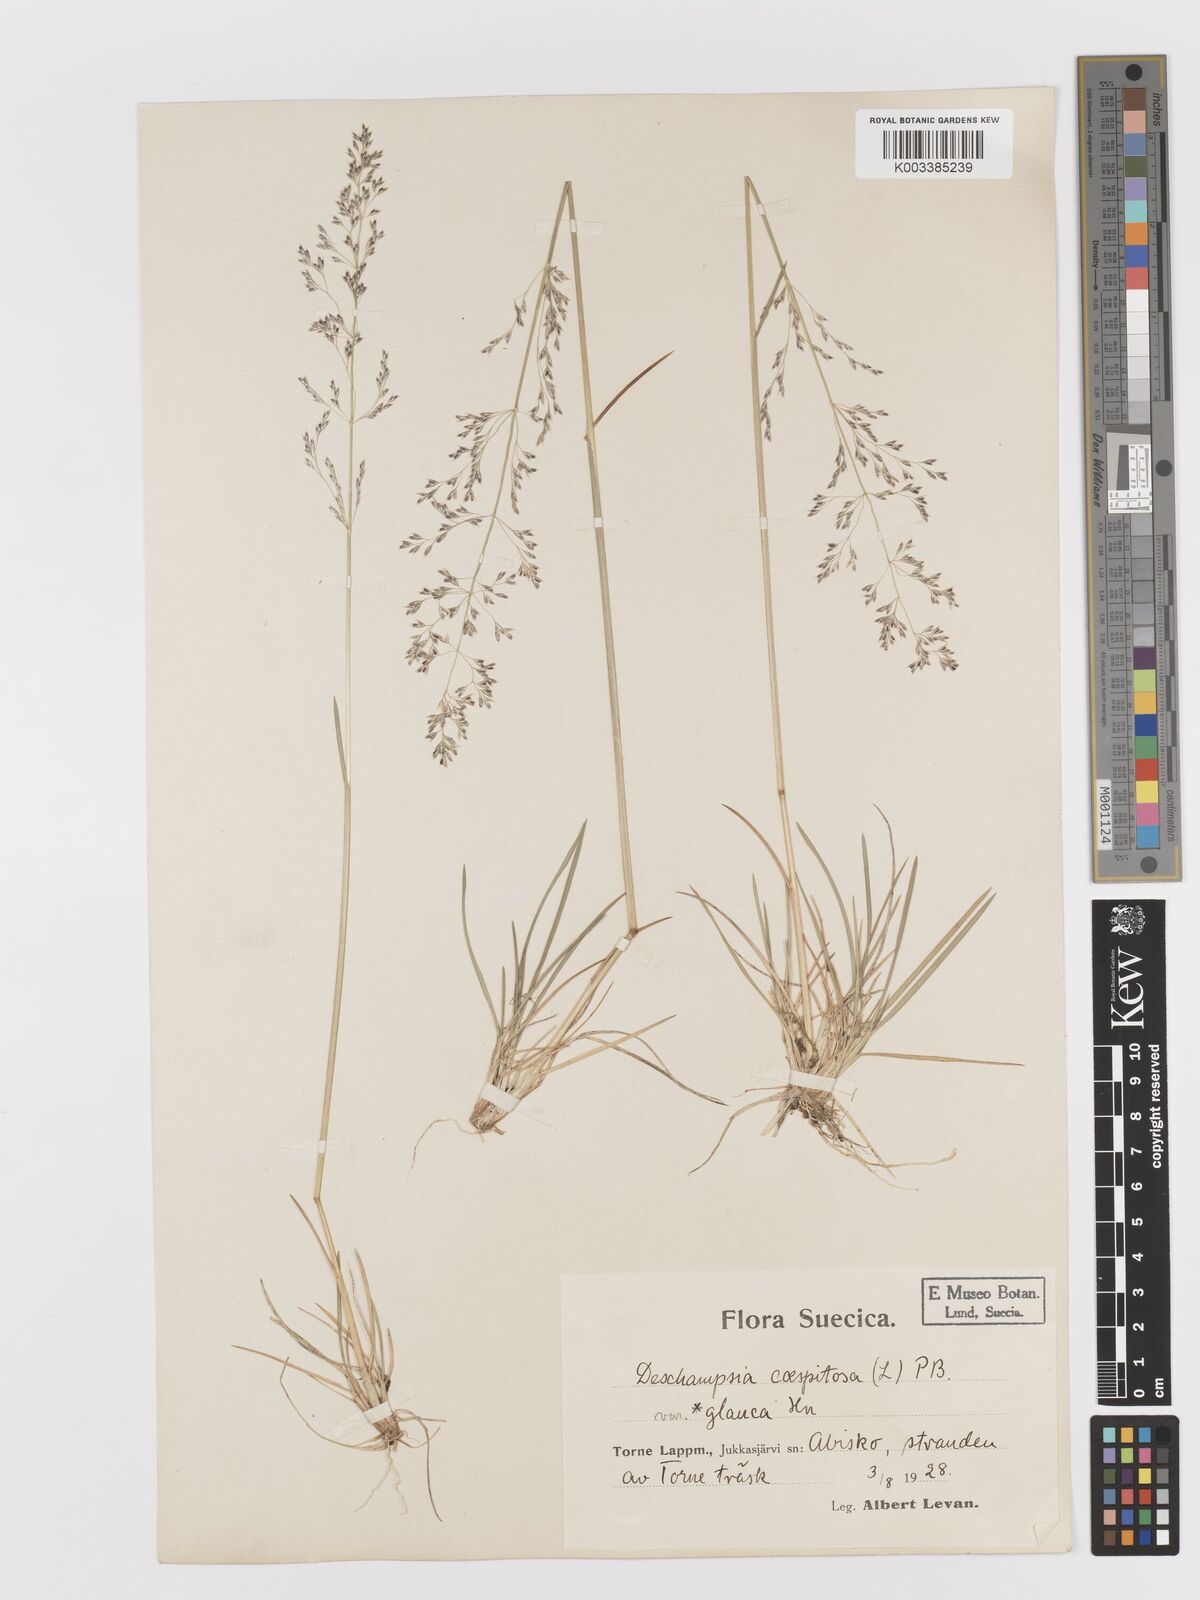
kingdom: Plantae
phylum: Tracheophyta
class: Liliopsida
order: Poales
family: Poaceae
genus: Deschampsia
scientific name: Deschampsia cespitosa
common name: Tufted hair-grass
